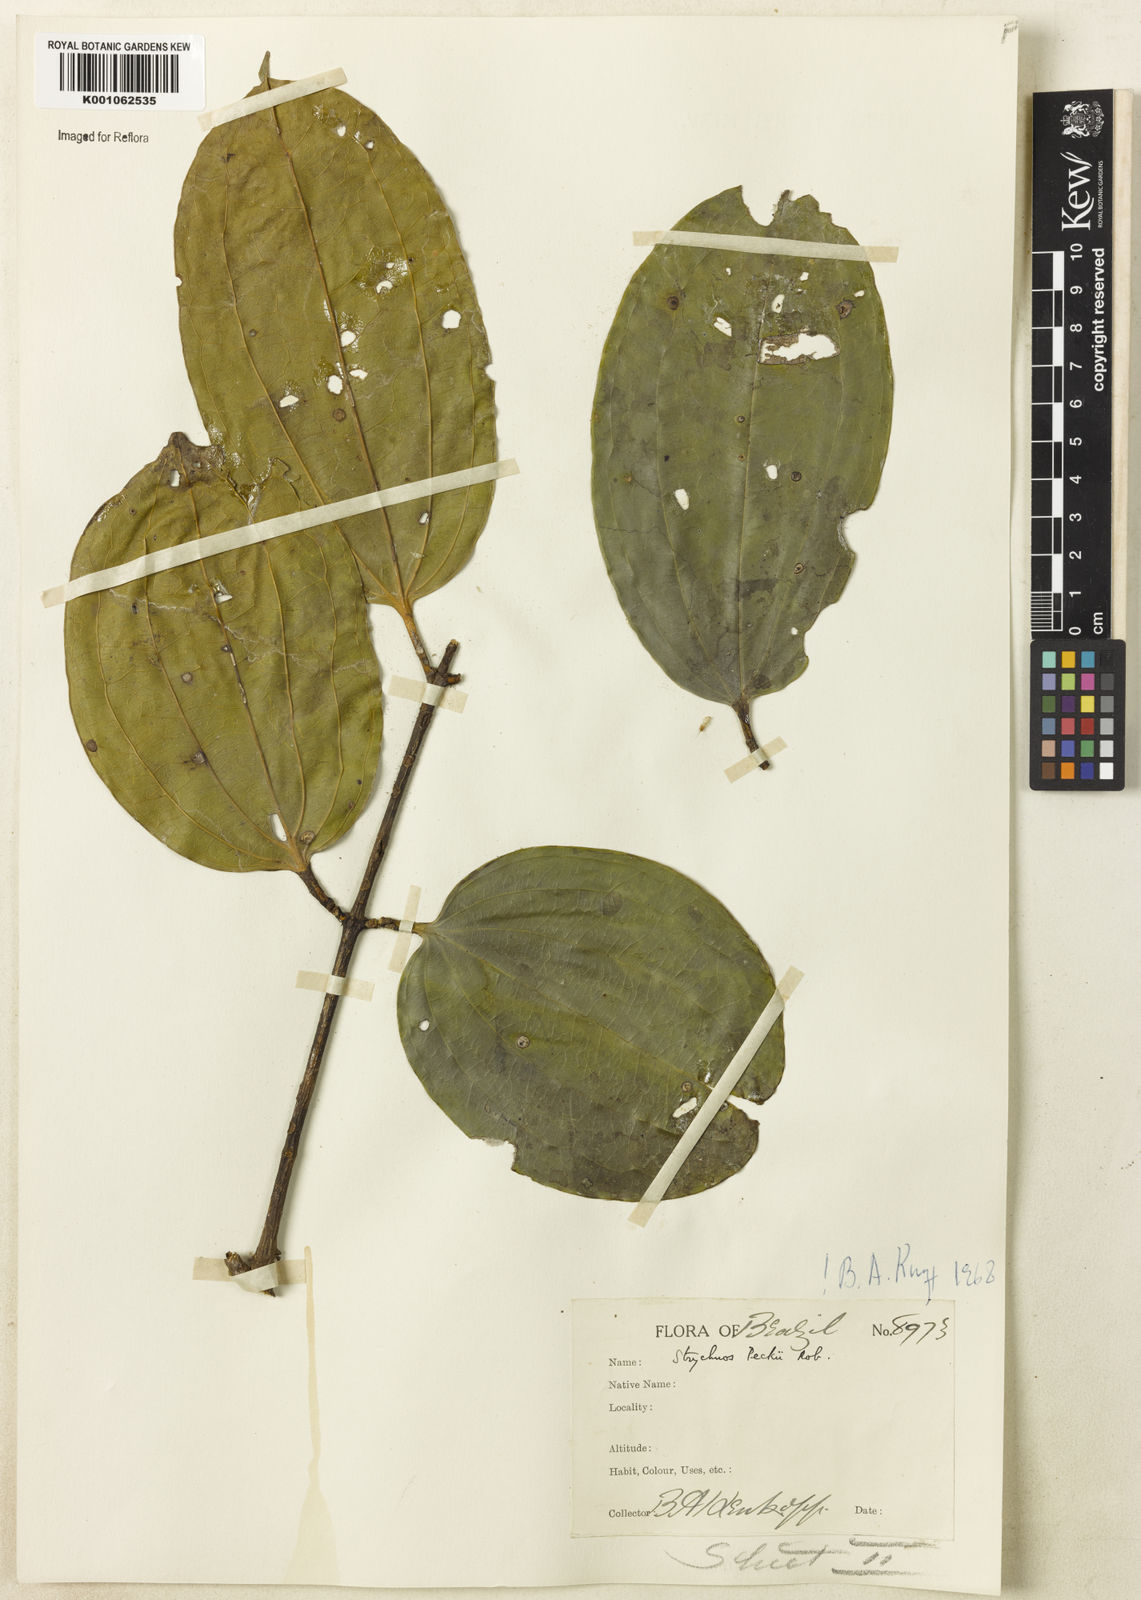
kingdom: Plantae
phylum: Tracheophyta
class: Magnoliopsida
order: Gentianales
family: Loganiaceae
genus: Strychnos
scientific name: Strychnos peckii
